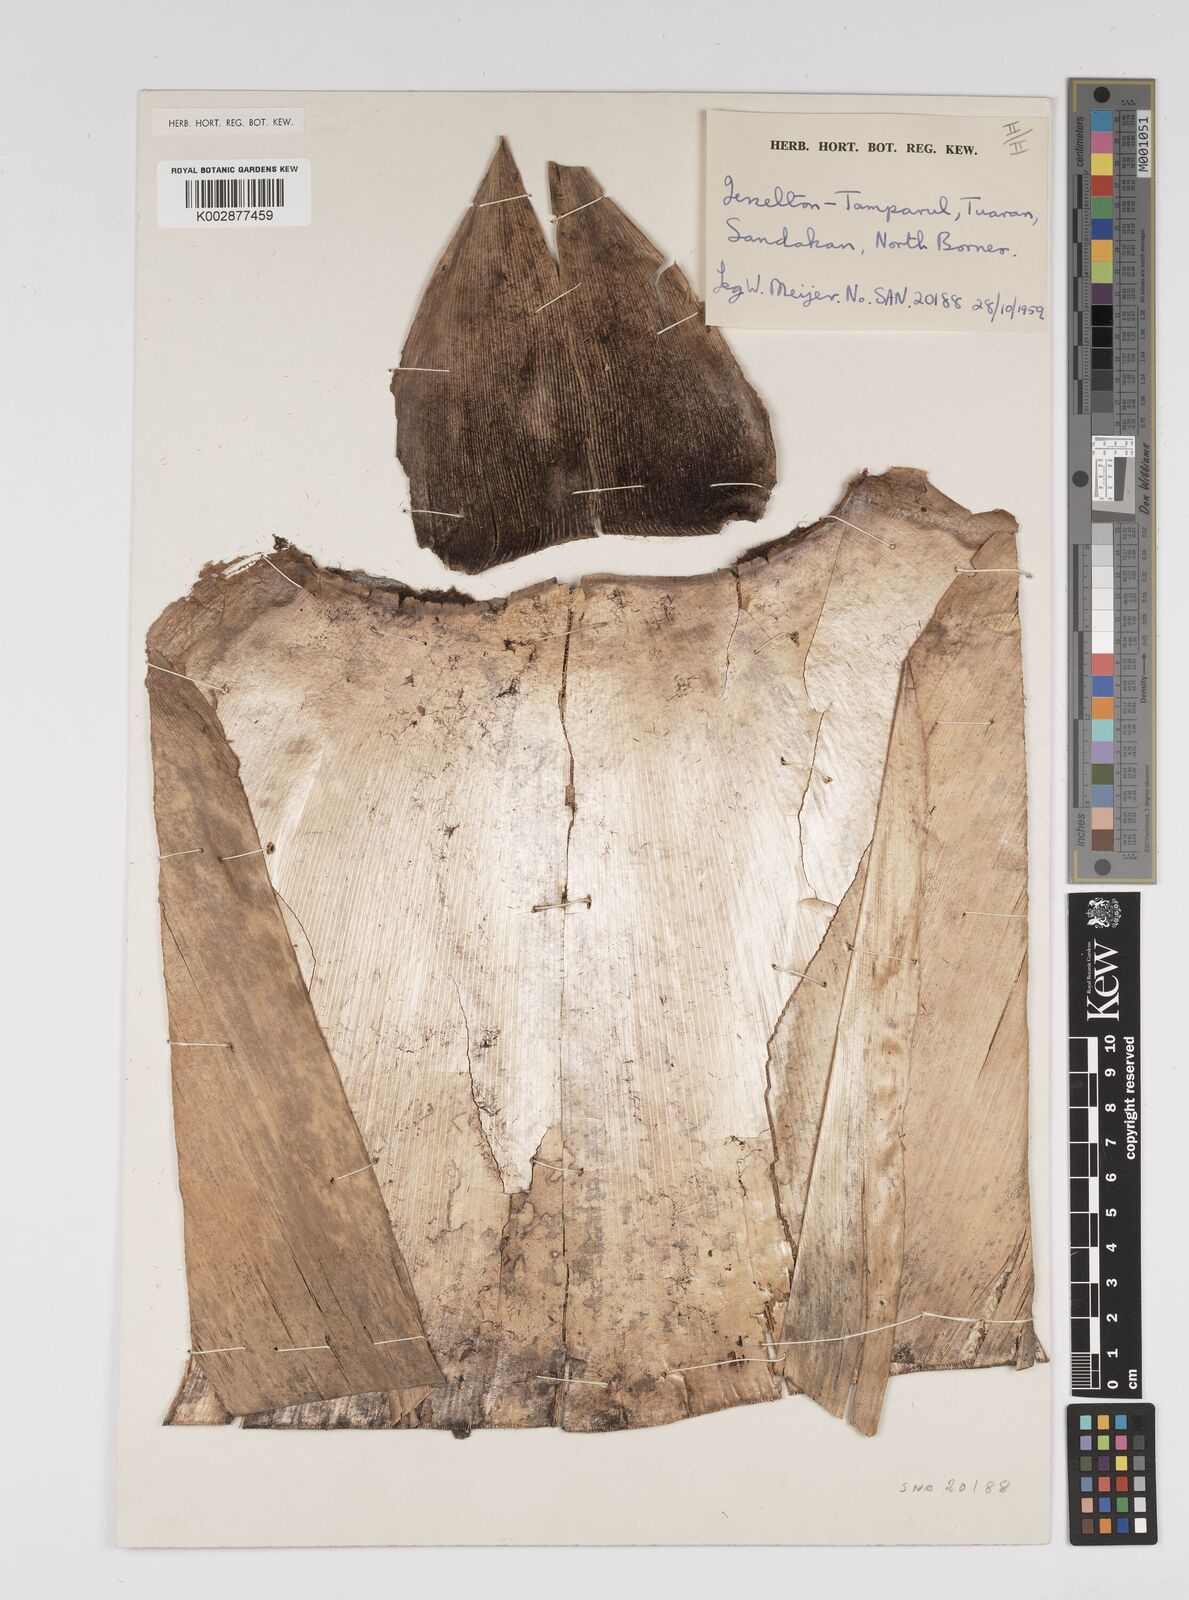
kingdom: Plantae
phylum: Tracheophyta
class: Liliopsida
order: Poales
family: Poaceae
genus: Bambusa
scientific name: Bambusa vulgaris
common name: Common bamboo
